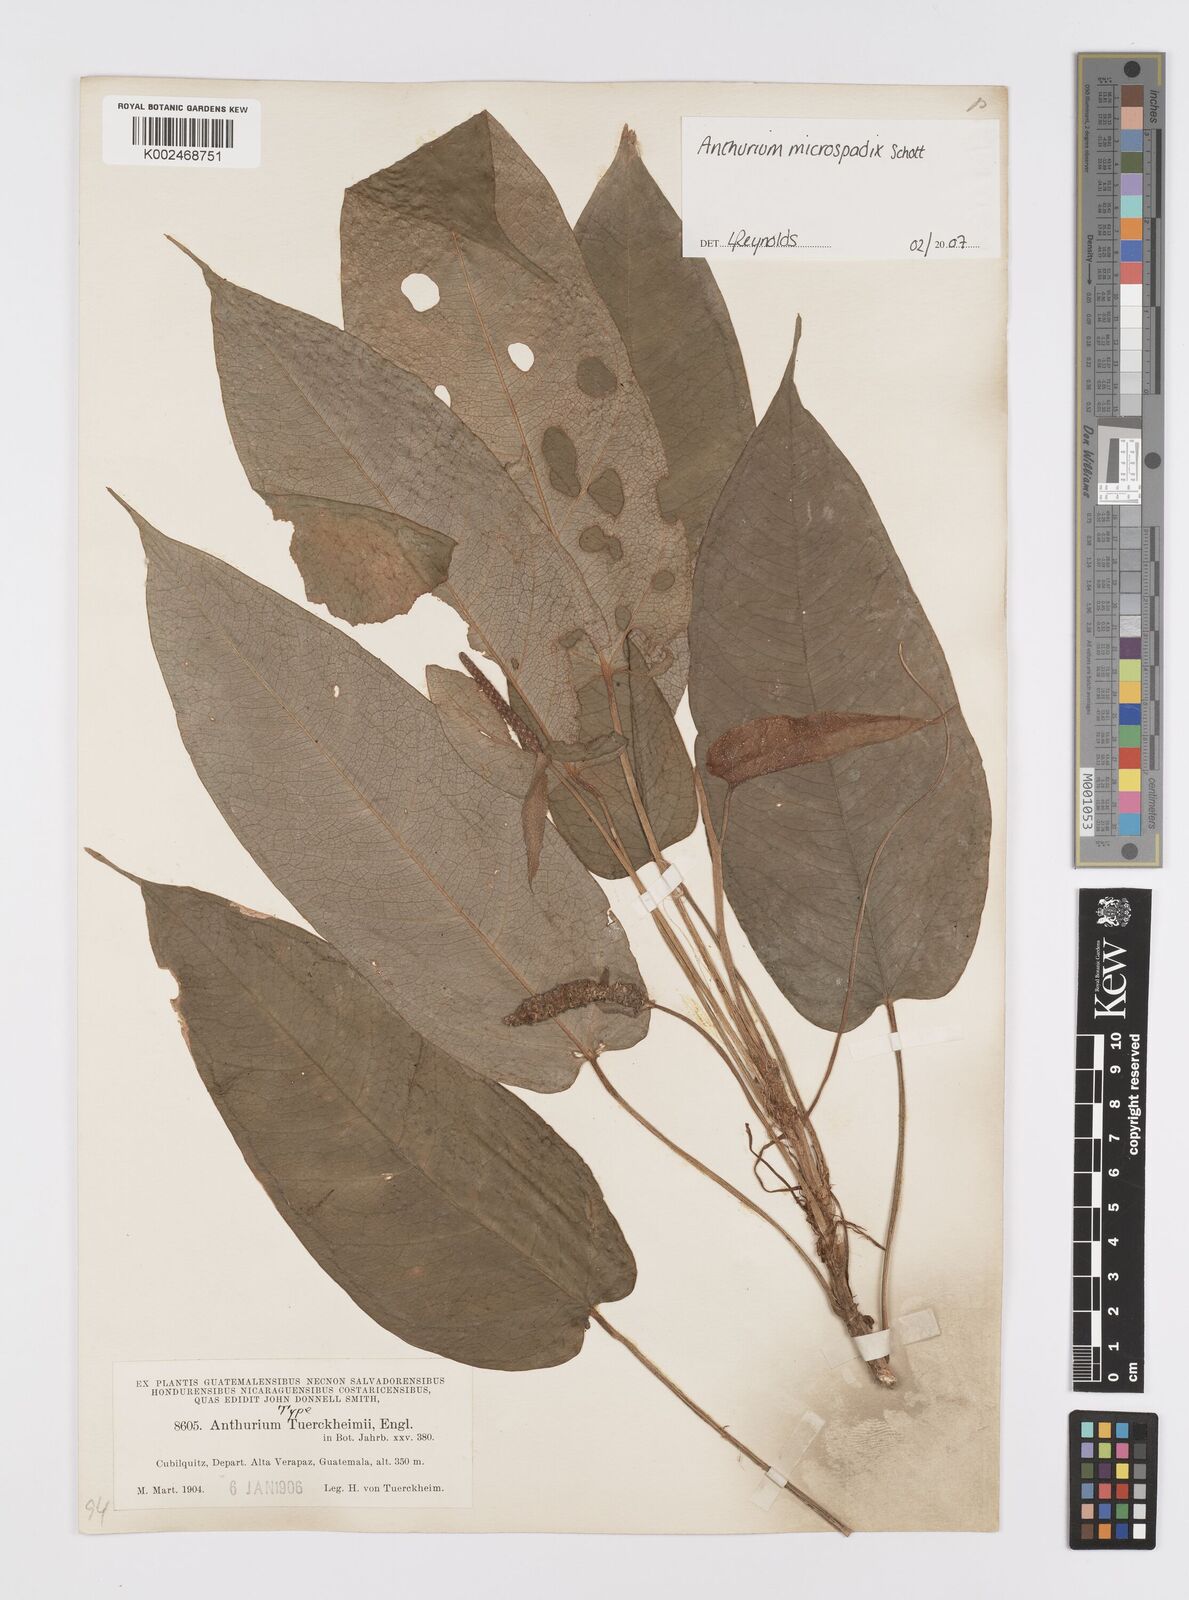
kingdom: Plantae
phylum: Tracheophyta
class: Liliopsida
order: Alismatales
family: Araceae
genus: Anthurium
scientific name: Anthurium microspadix
